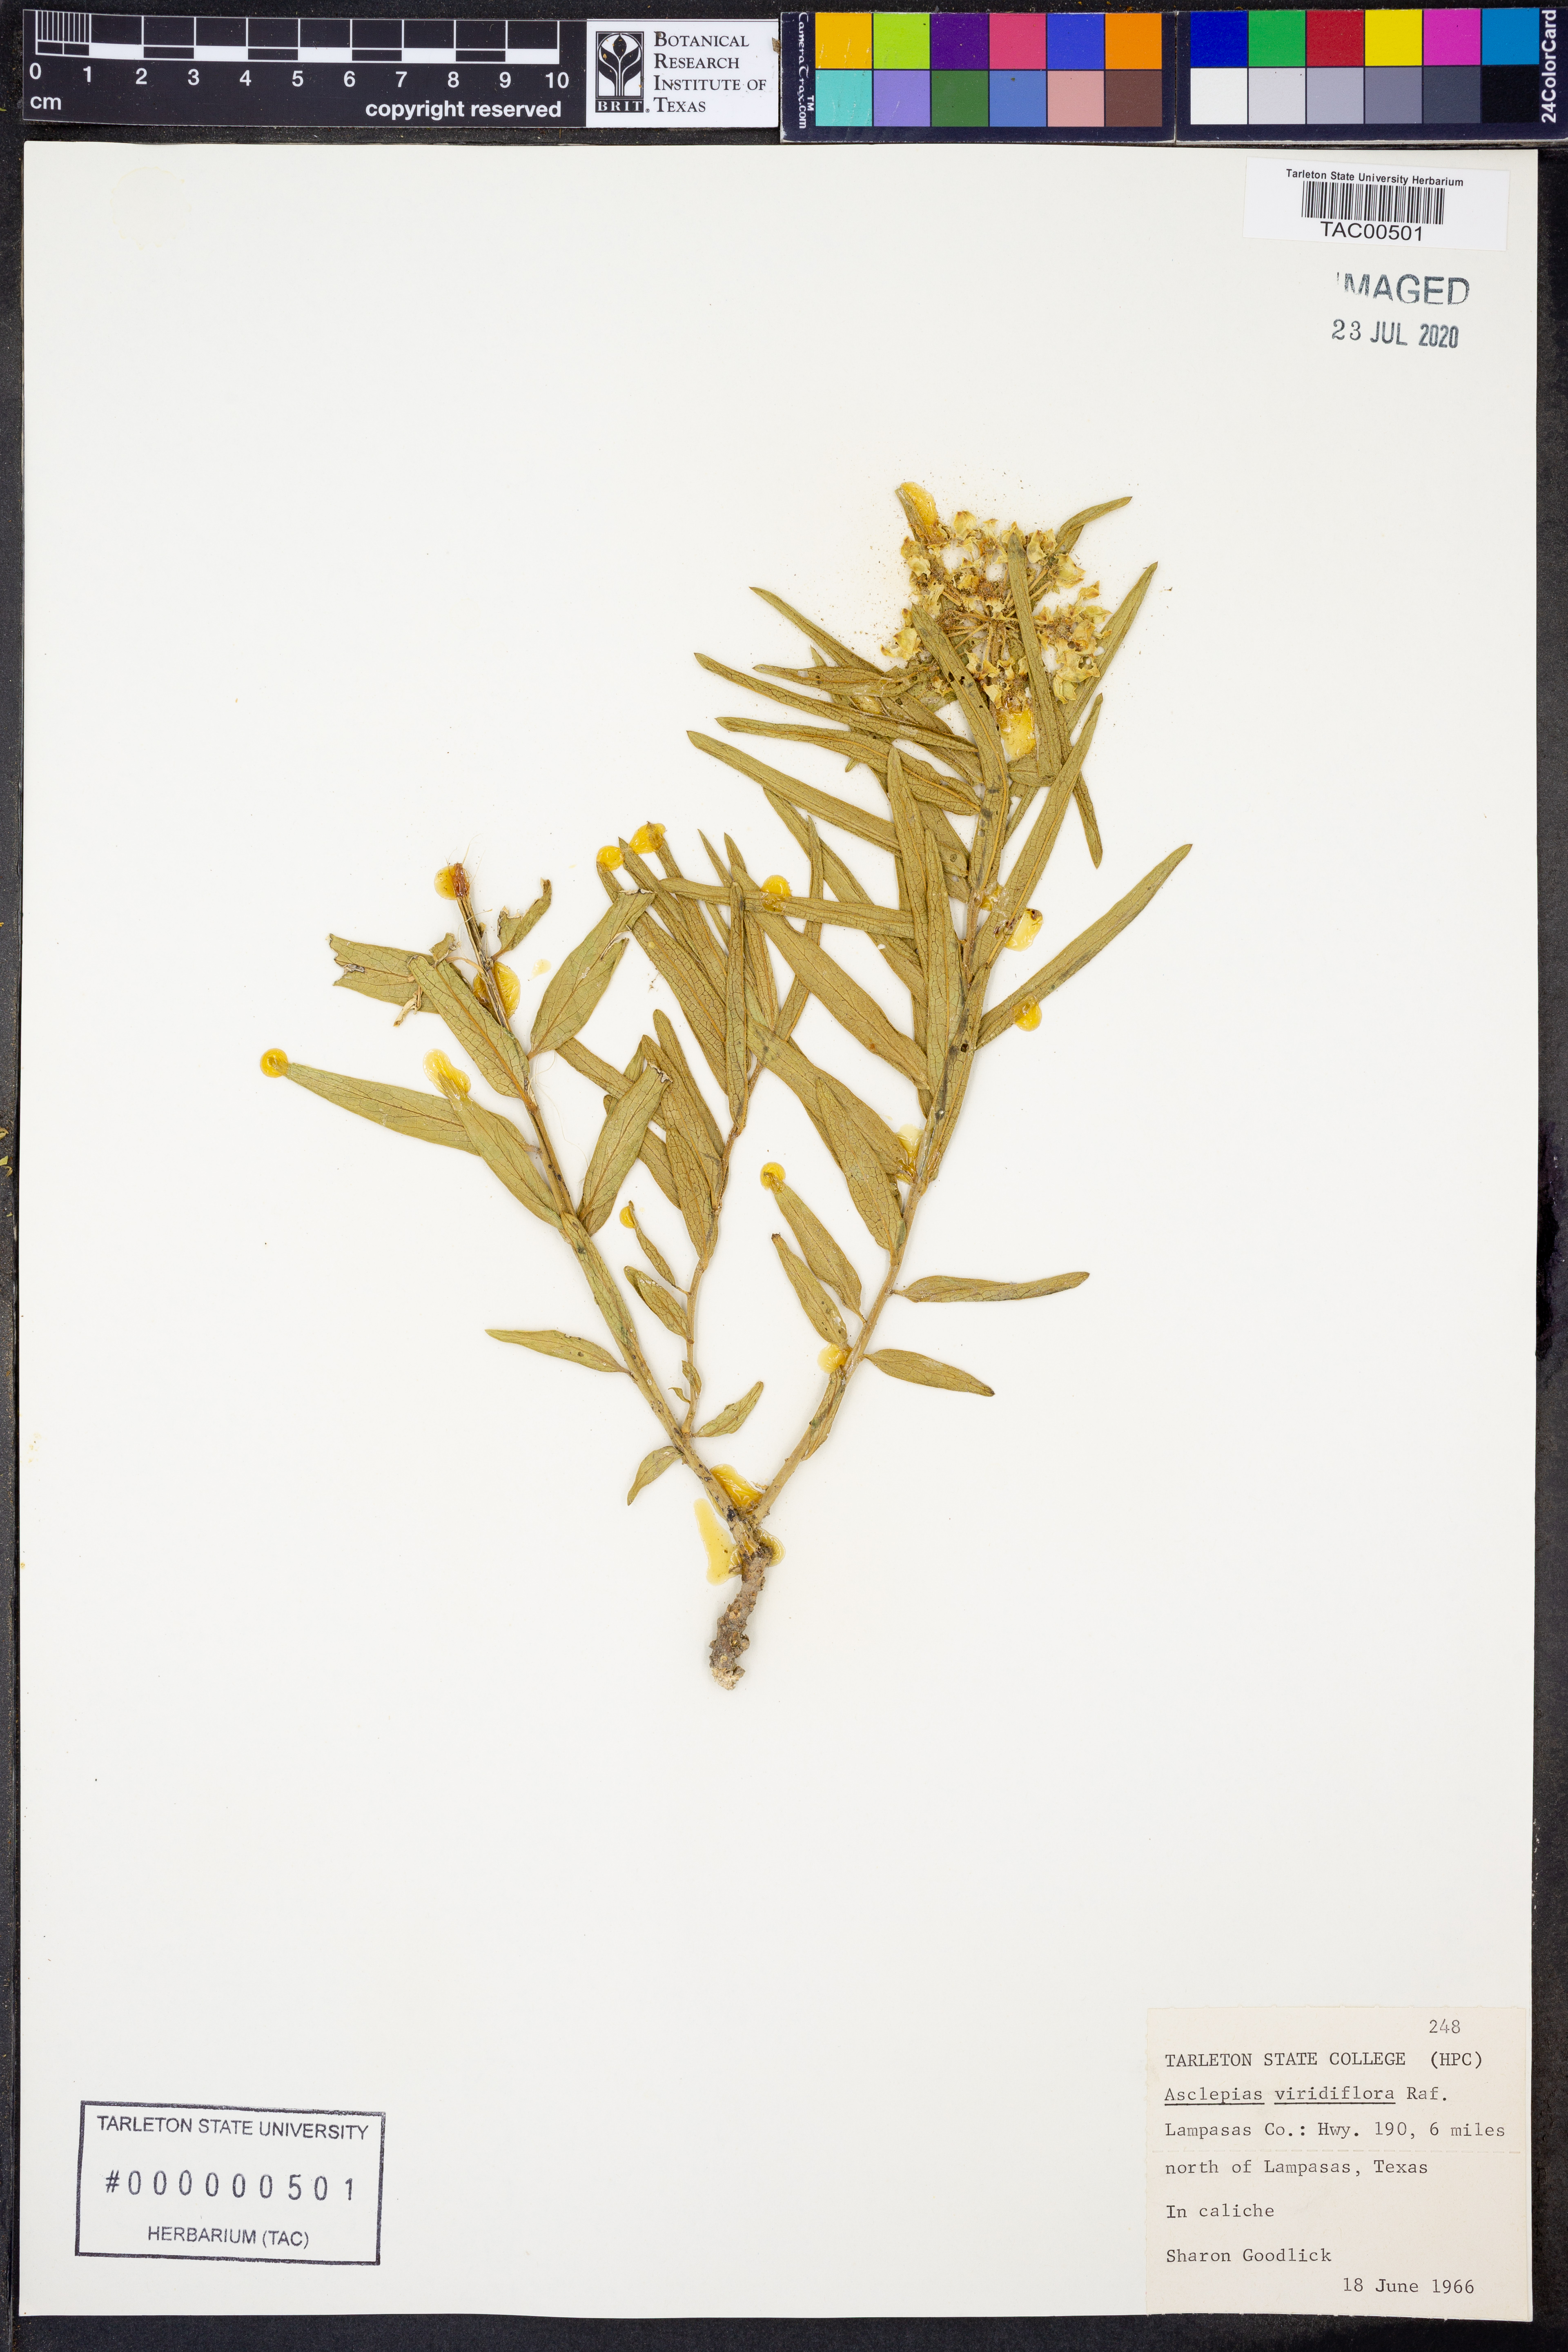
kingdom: Plantae
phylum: Tracheophyta
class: Magnoliopsida
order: Gentianales
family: Apocynaceae
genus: Asclepias
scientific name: Asclepias viridiflora
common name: Green comet milkweed
